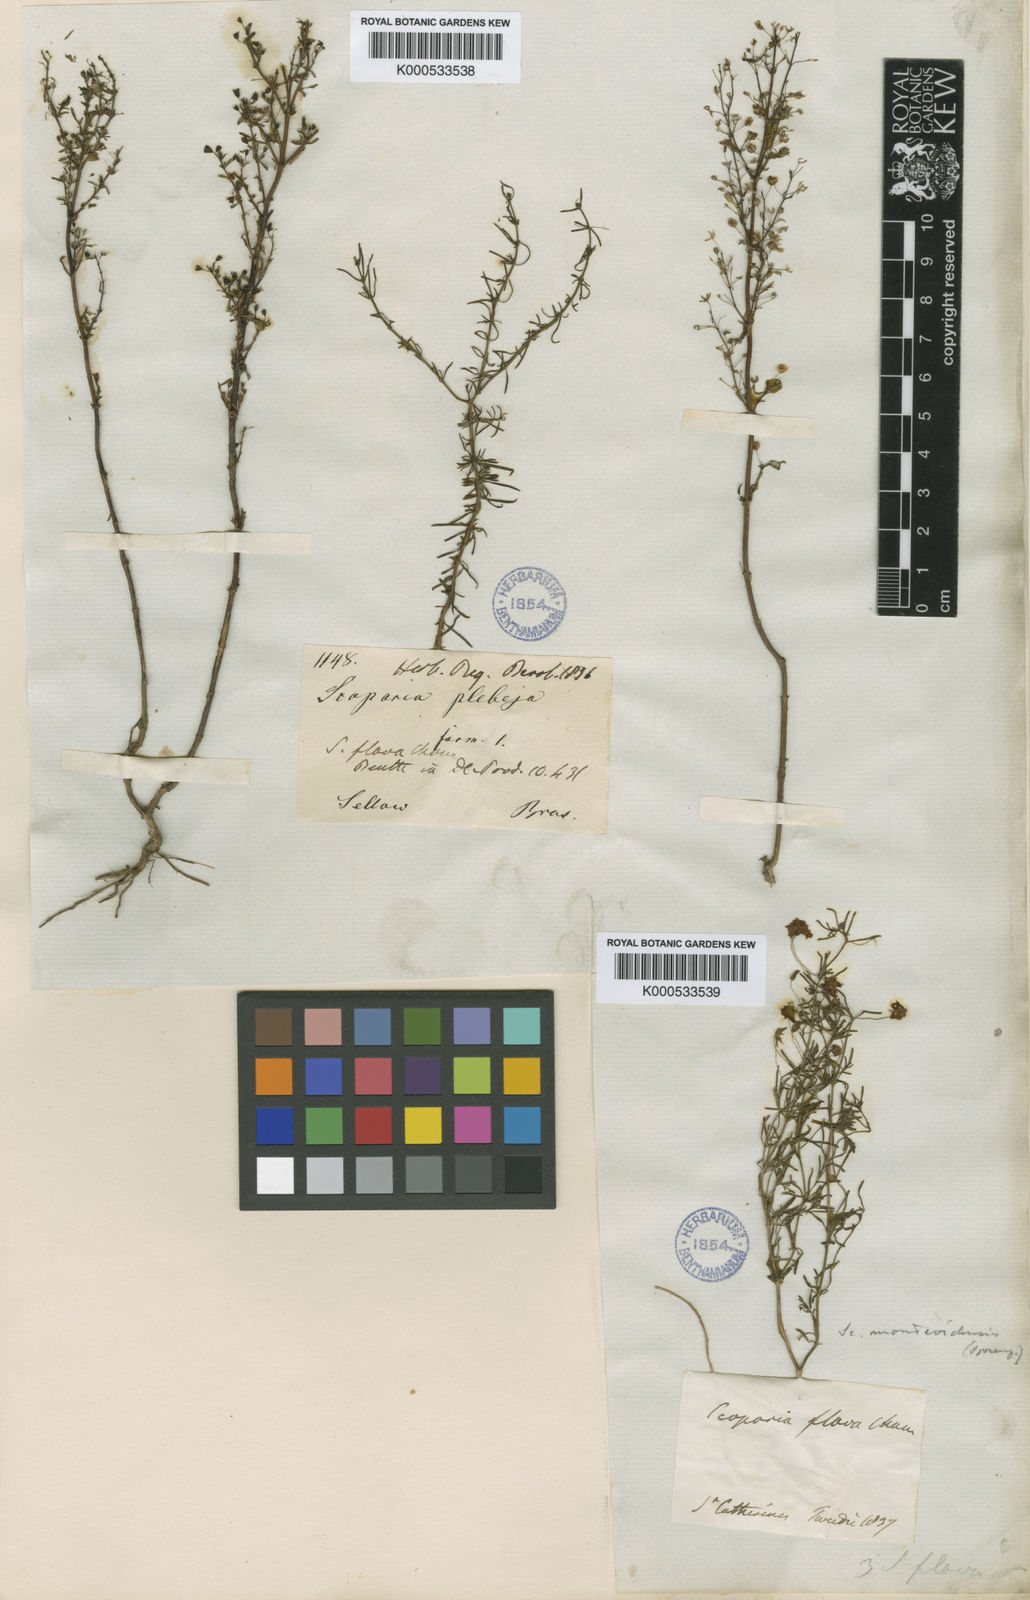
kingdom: Plantae
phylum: Tracheophyta
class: Magnoliopsida
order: Lamiales
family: Plantaginaceae
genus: Scoparia
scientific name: Scoparia ericacea
